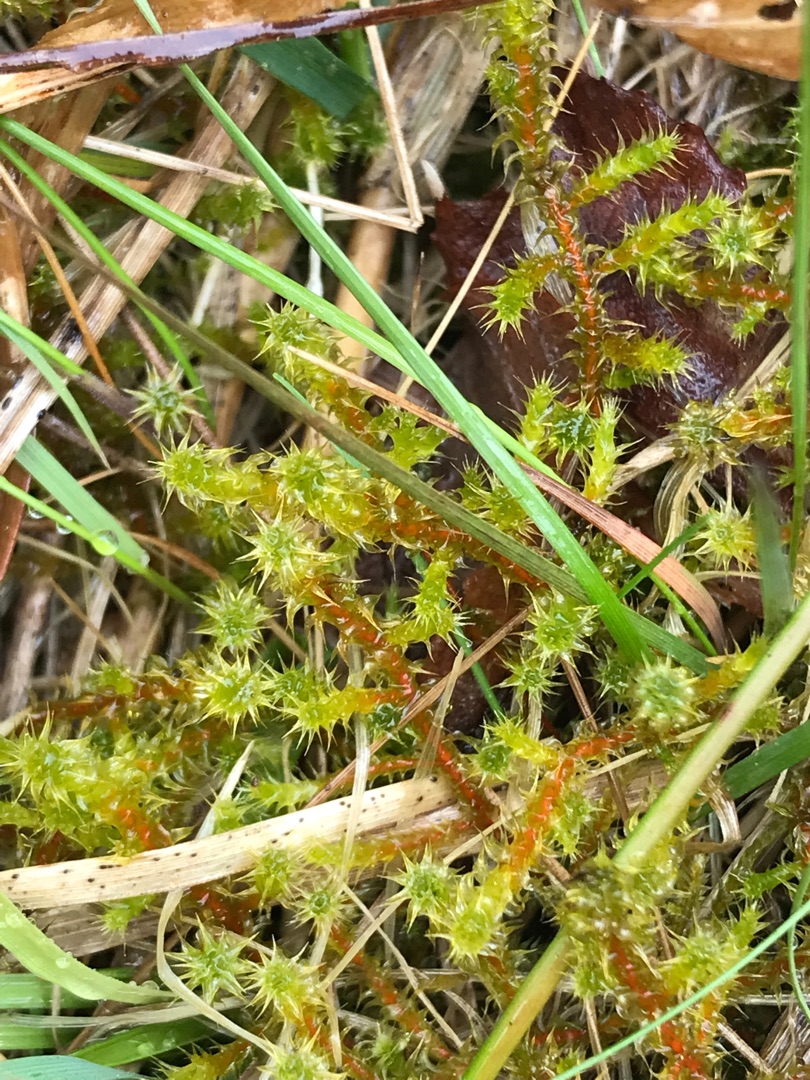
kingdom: Plantae
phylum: Bryophyta
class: Bryopsida
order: Hypnales
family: Hylocomiaceae
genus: Rhytidiadelphus
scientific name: Rhytidiadelphus squarrosus
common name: Plæne-kransemos
